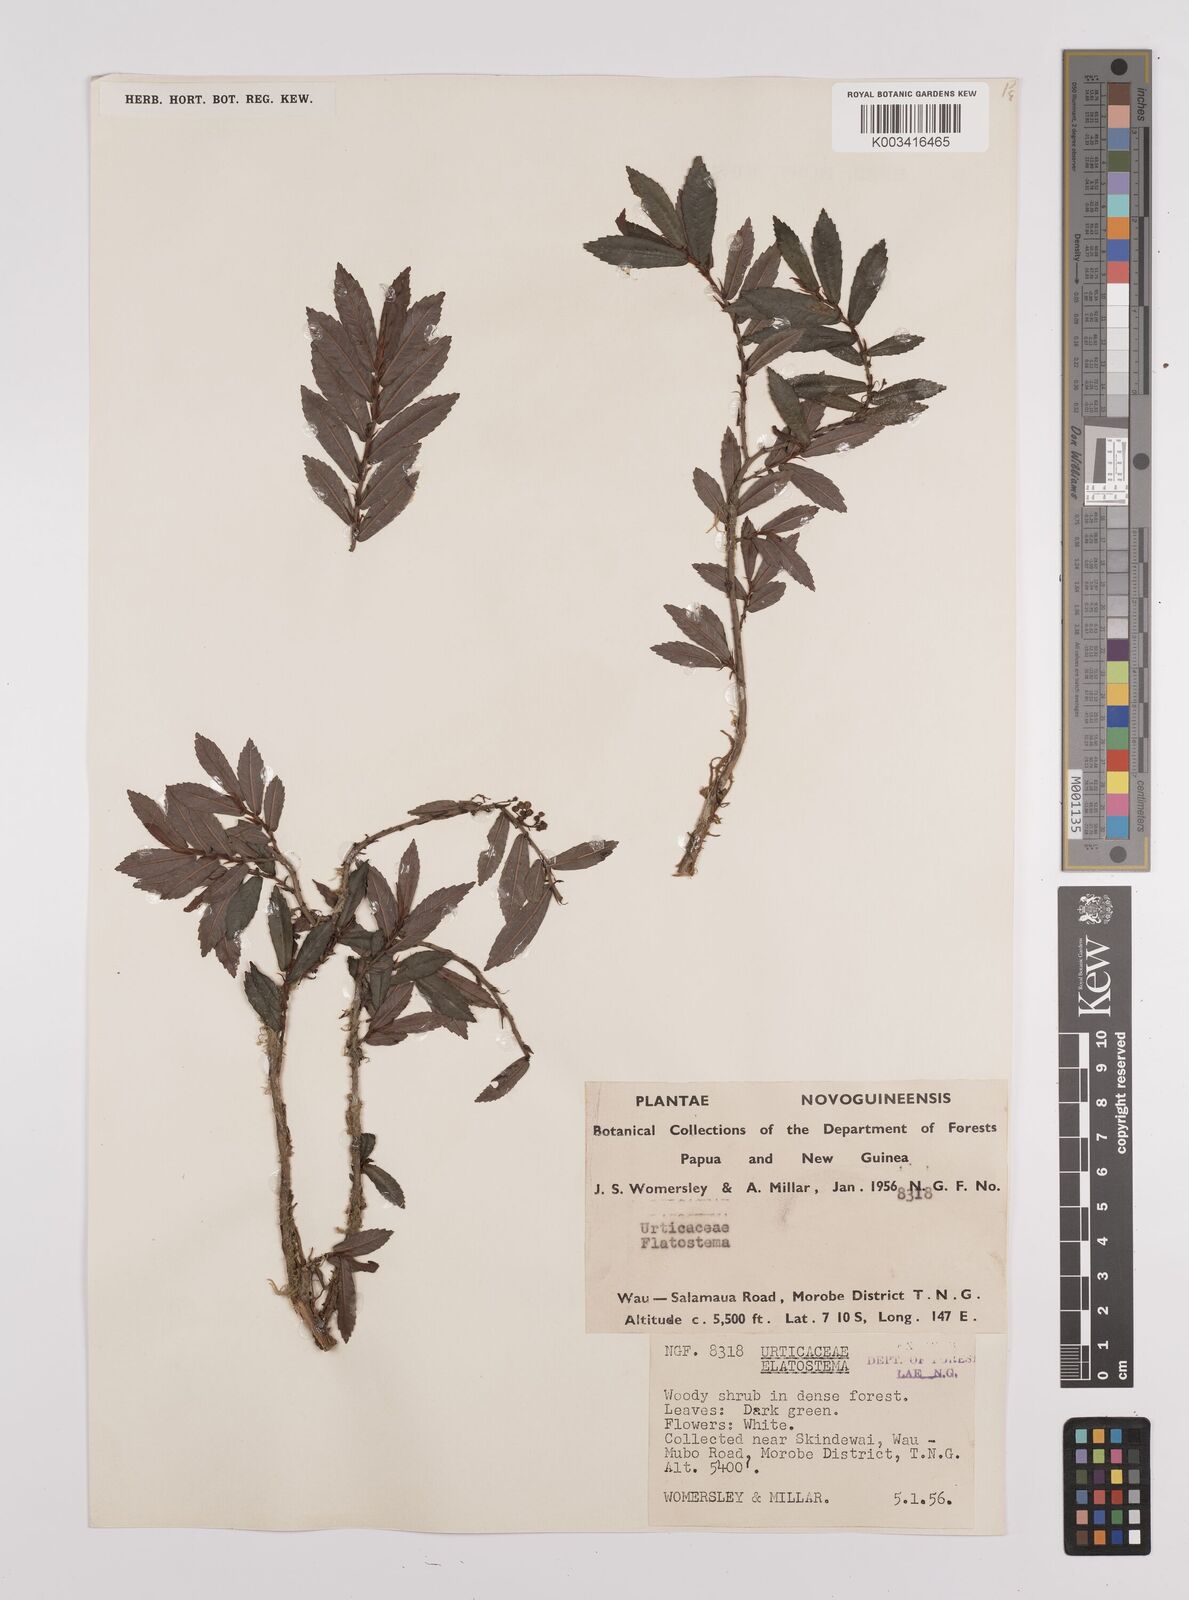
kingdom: Plantae
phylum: Tracheophyta
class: Magnoliopsida
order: Rosales
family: Urticaceae
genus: Elatostema
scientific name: Elatostema
